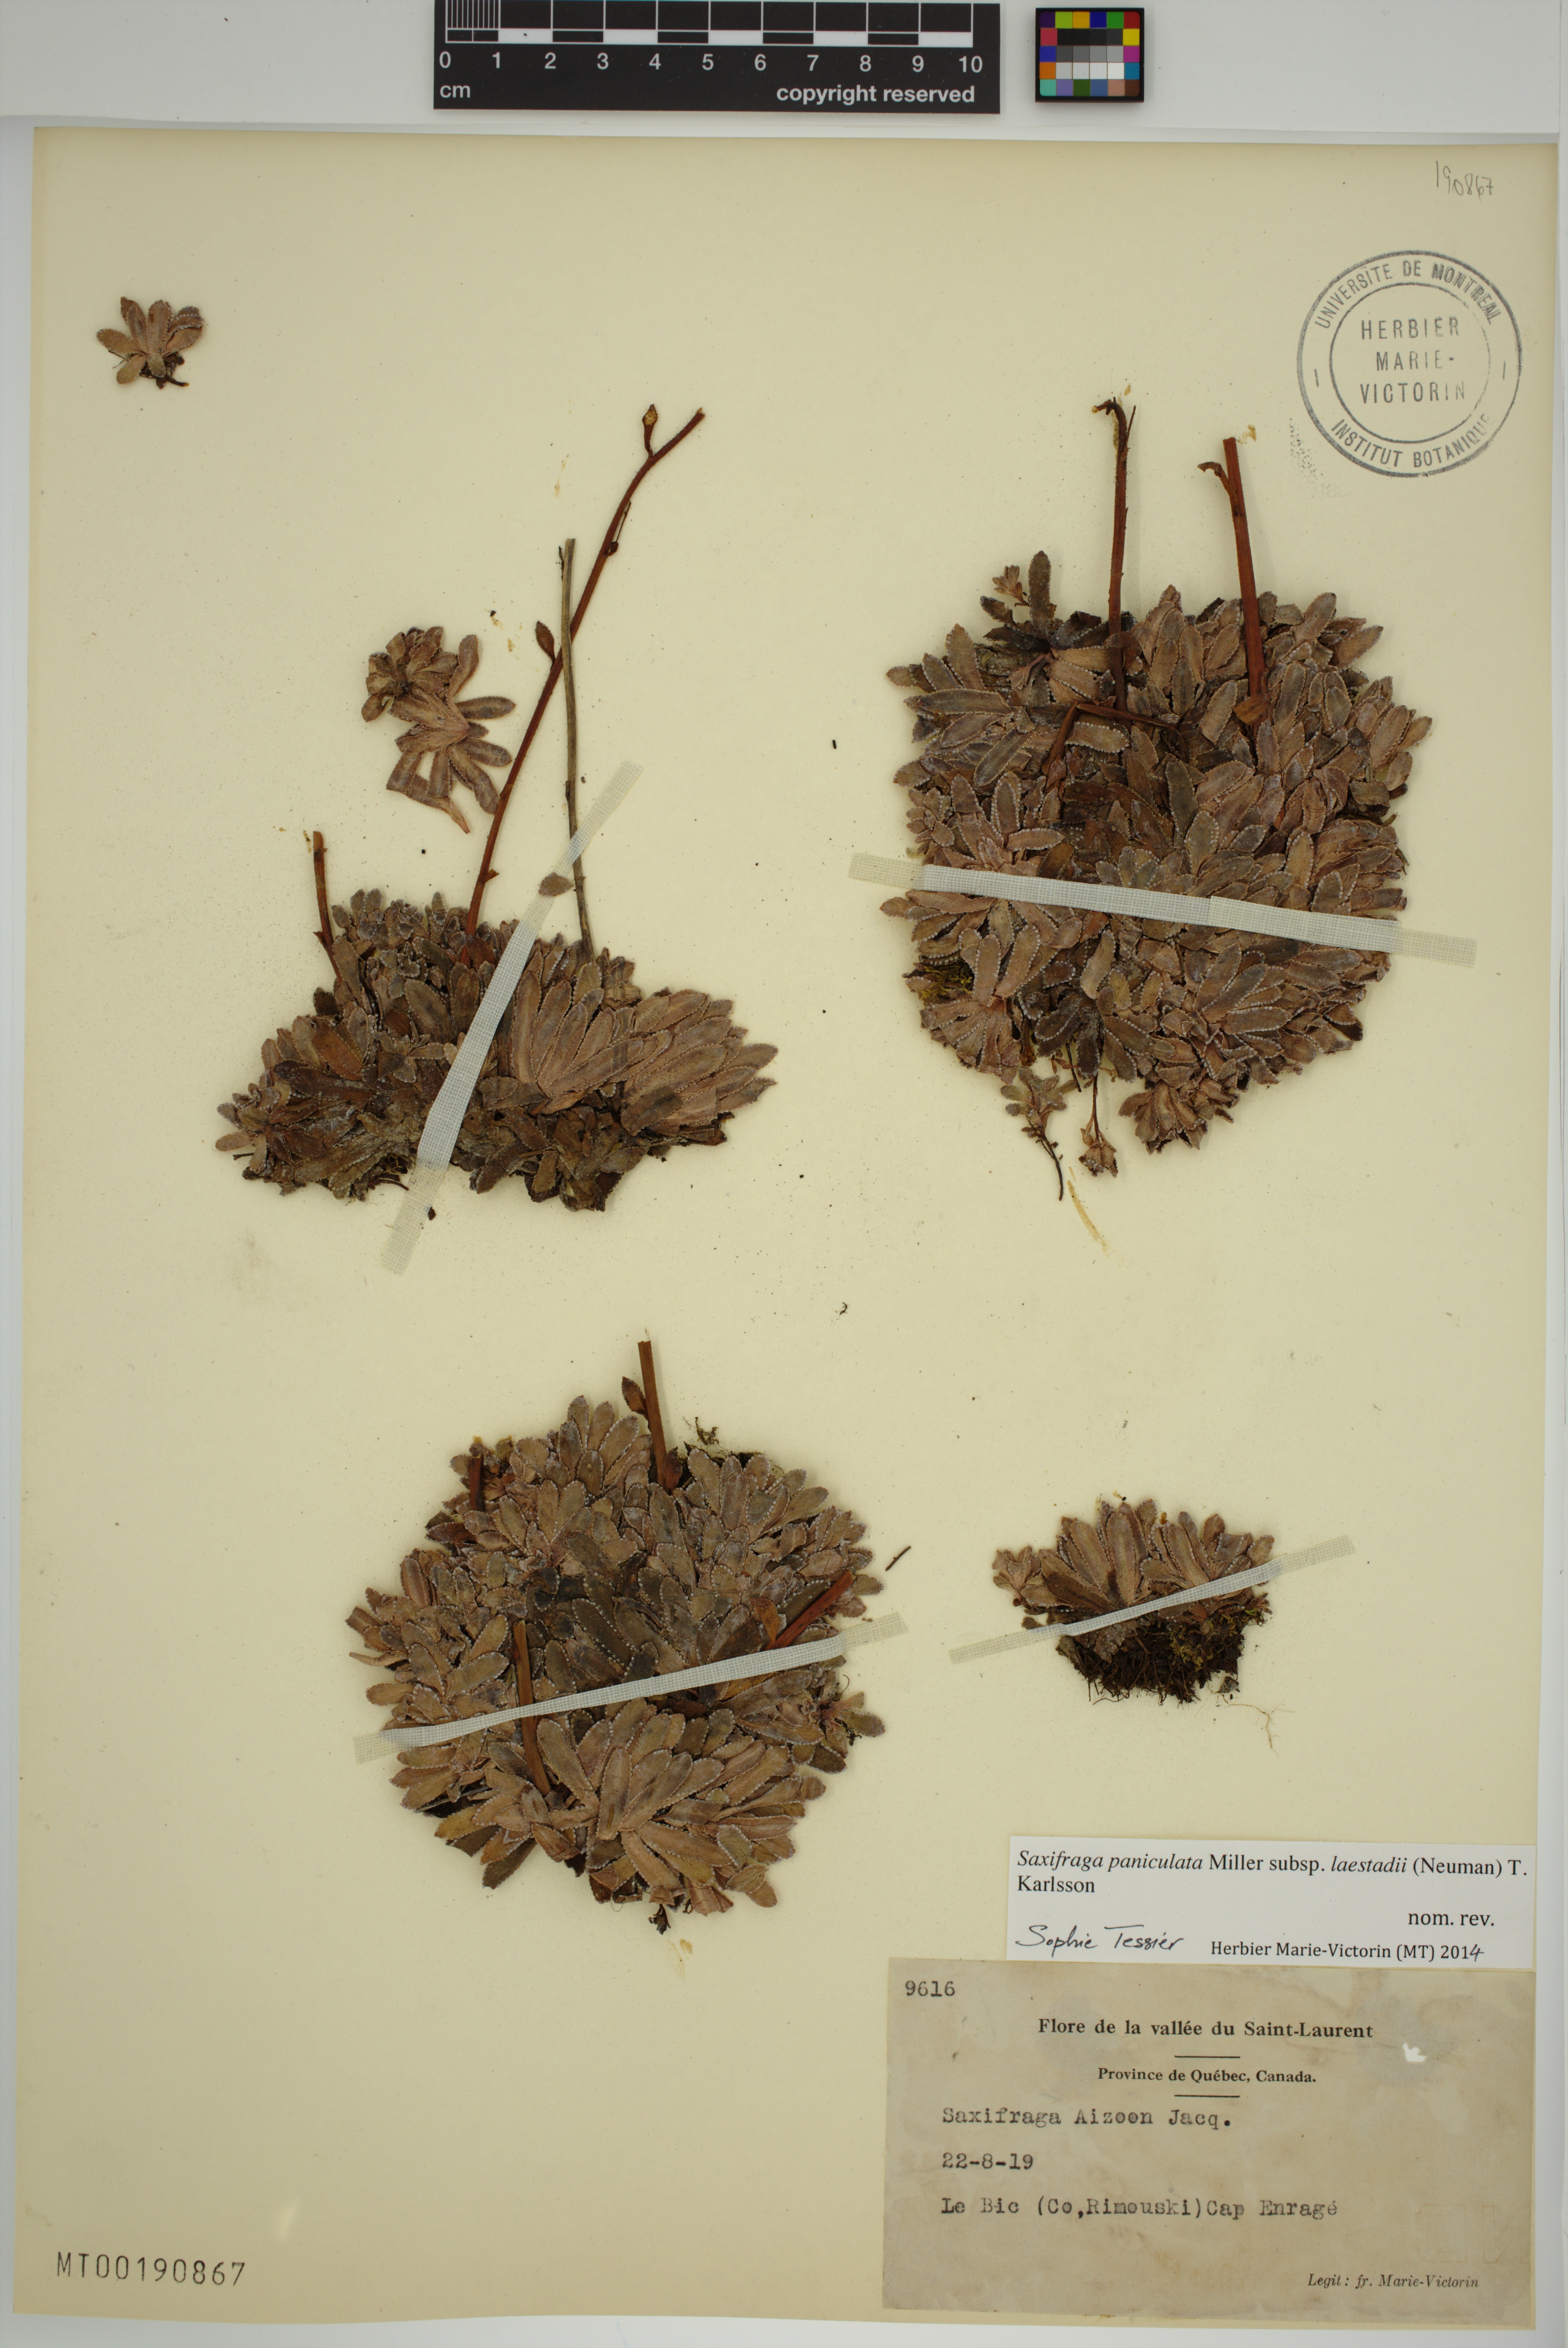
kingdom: Plantae
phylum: Tracheophyta
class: Magnoliopsida
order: Saxifragales
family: Saxifragaceae
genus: Saxifraga
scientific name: Saxifraga paniculata
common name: Livelong saxifrage
